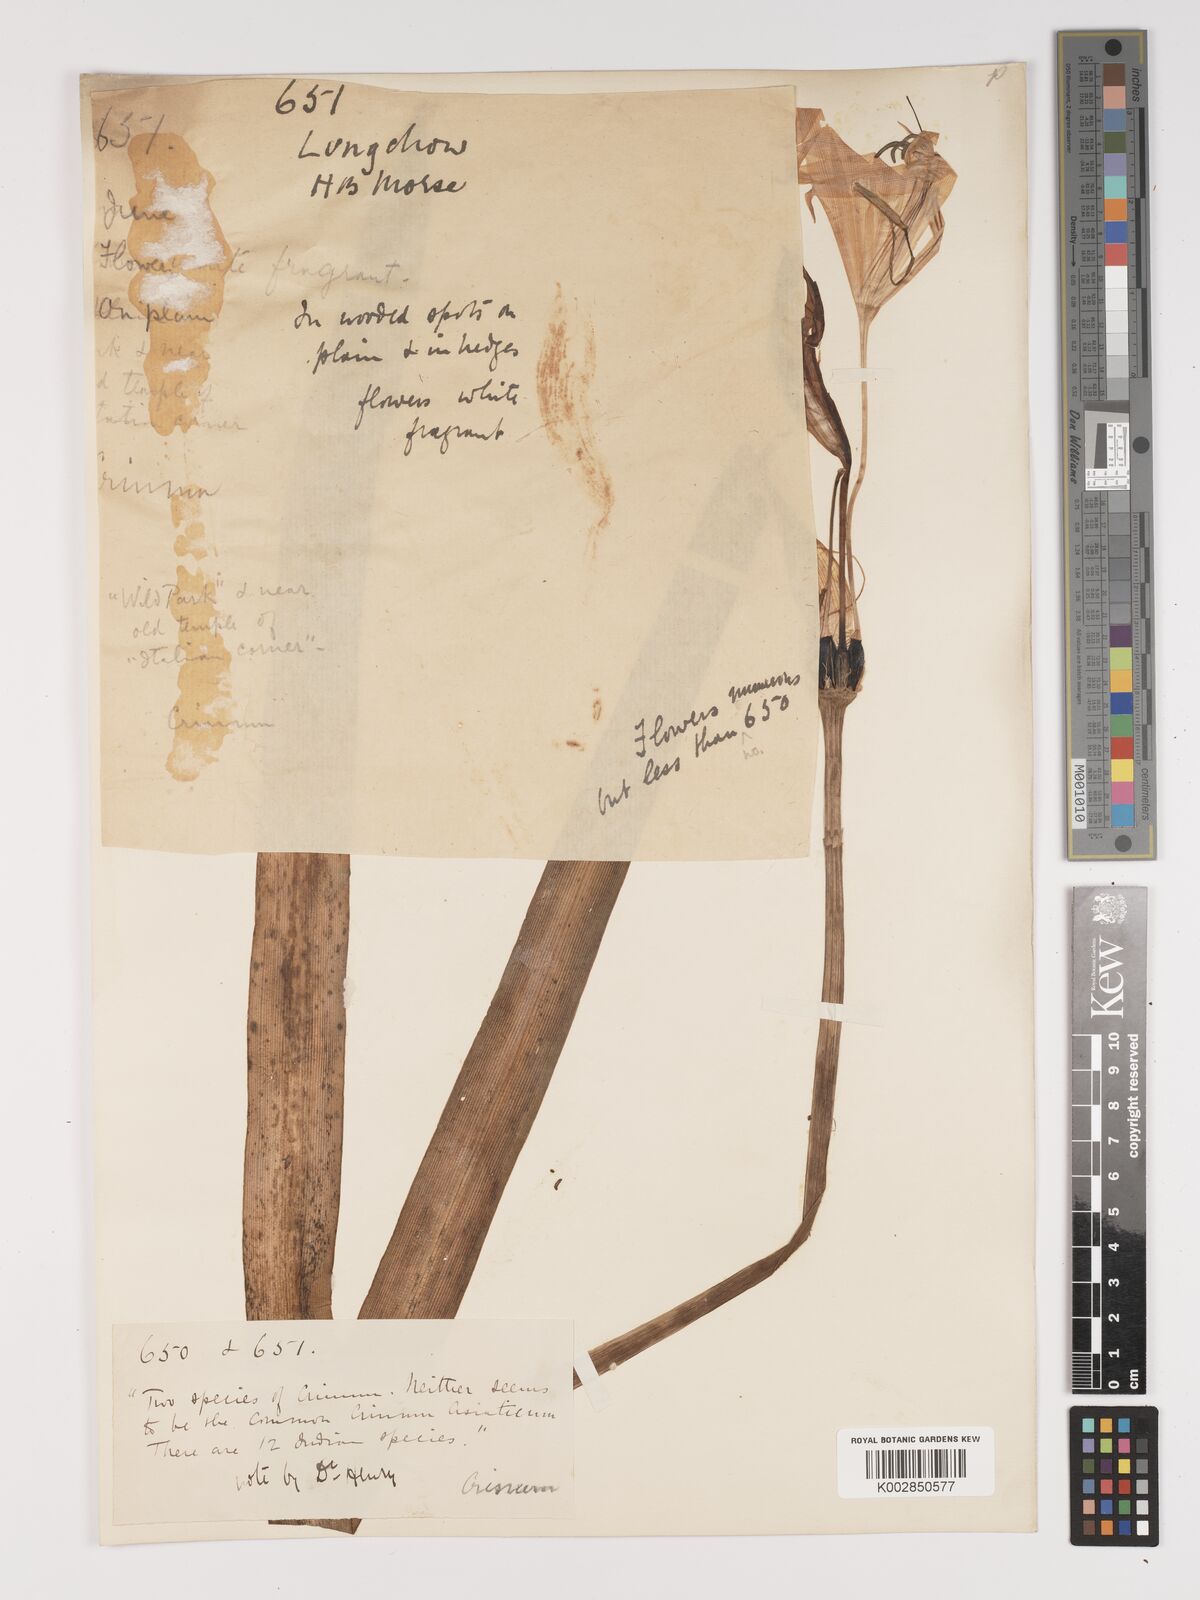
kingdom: Plantae
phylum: Tracheophyta
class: Liliopsida
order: Asparagales
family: Amaryllidaceae
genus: Crinum
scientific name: Crinum
